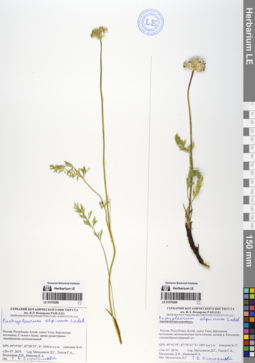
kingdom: Plantae
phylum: Tracheophyta
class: Magnoliopsida
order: Apiales
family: Apiaceae
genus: Pachypleurum
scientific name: Pachypleurum mutellinoides
